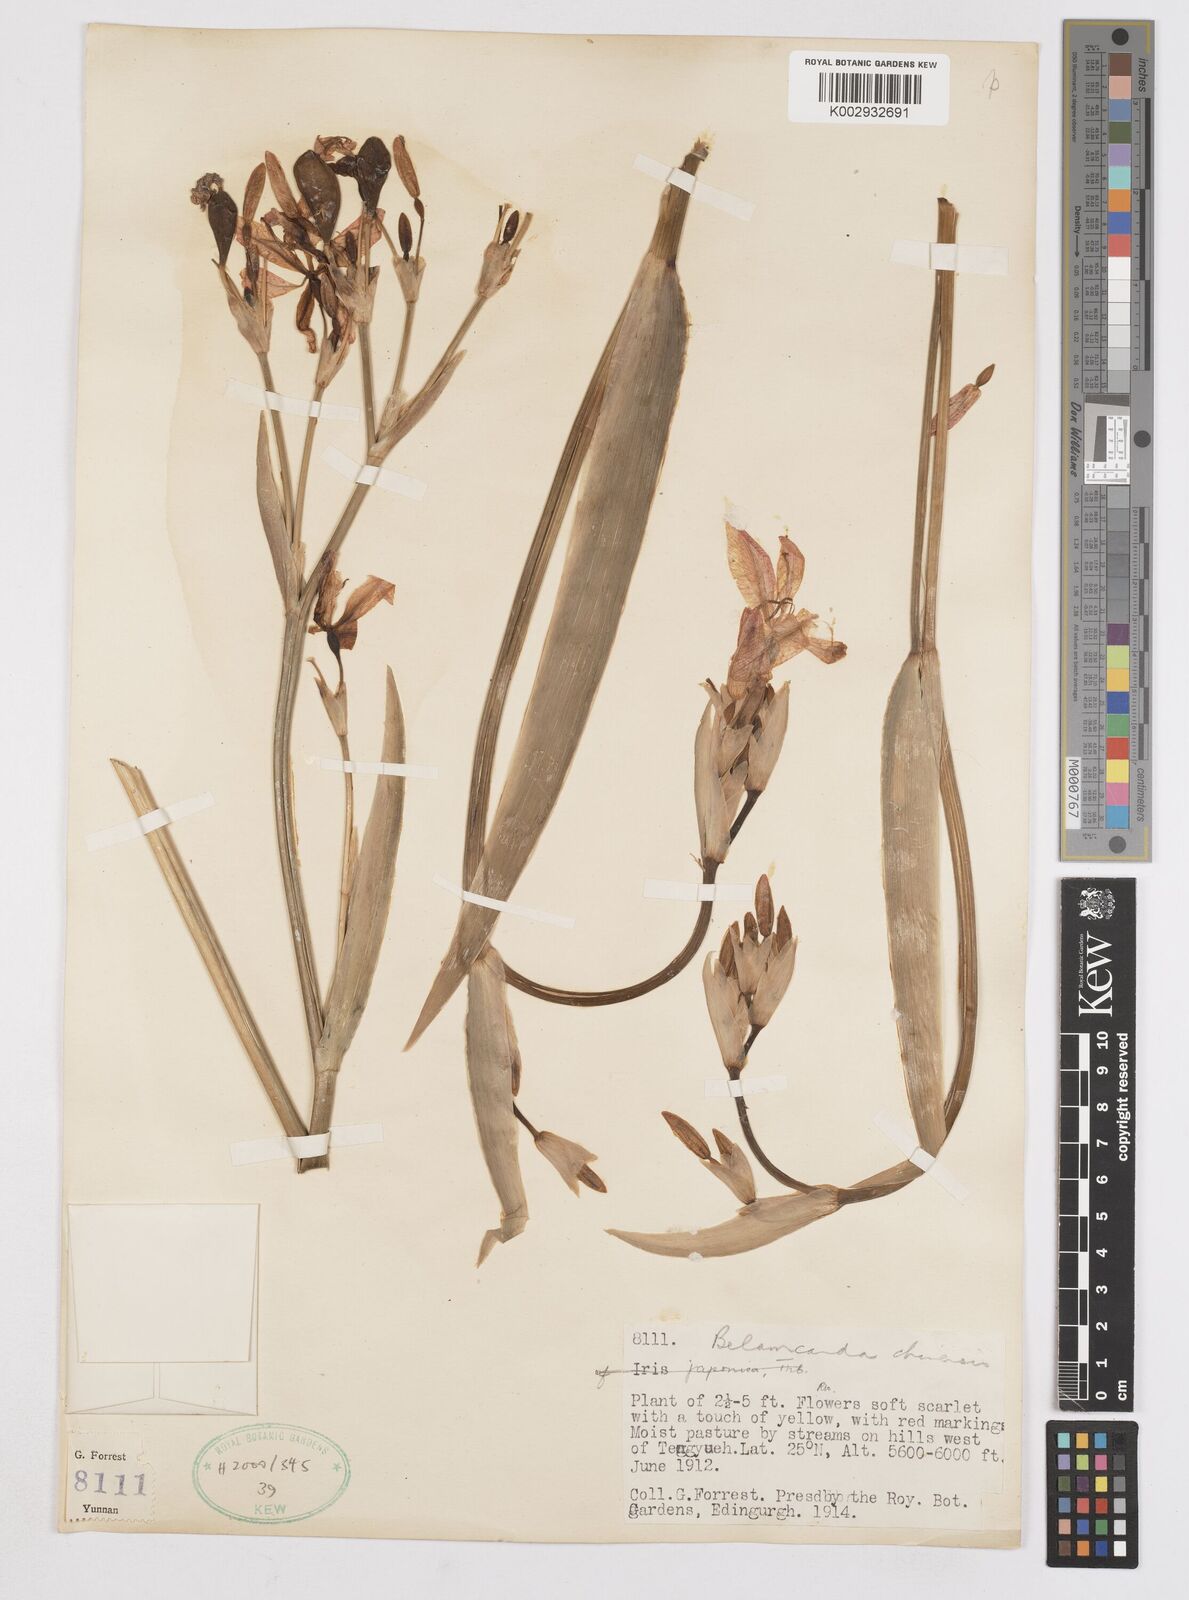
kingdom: Plantae
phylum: Tracheophyta
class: Liliopsida
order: Asparagales
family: Iridaceae
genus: Iris
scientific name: Iris
